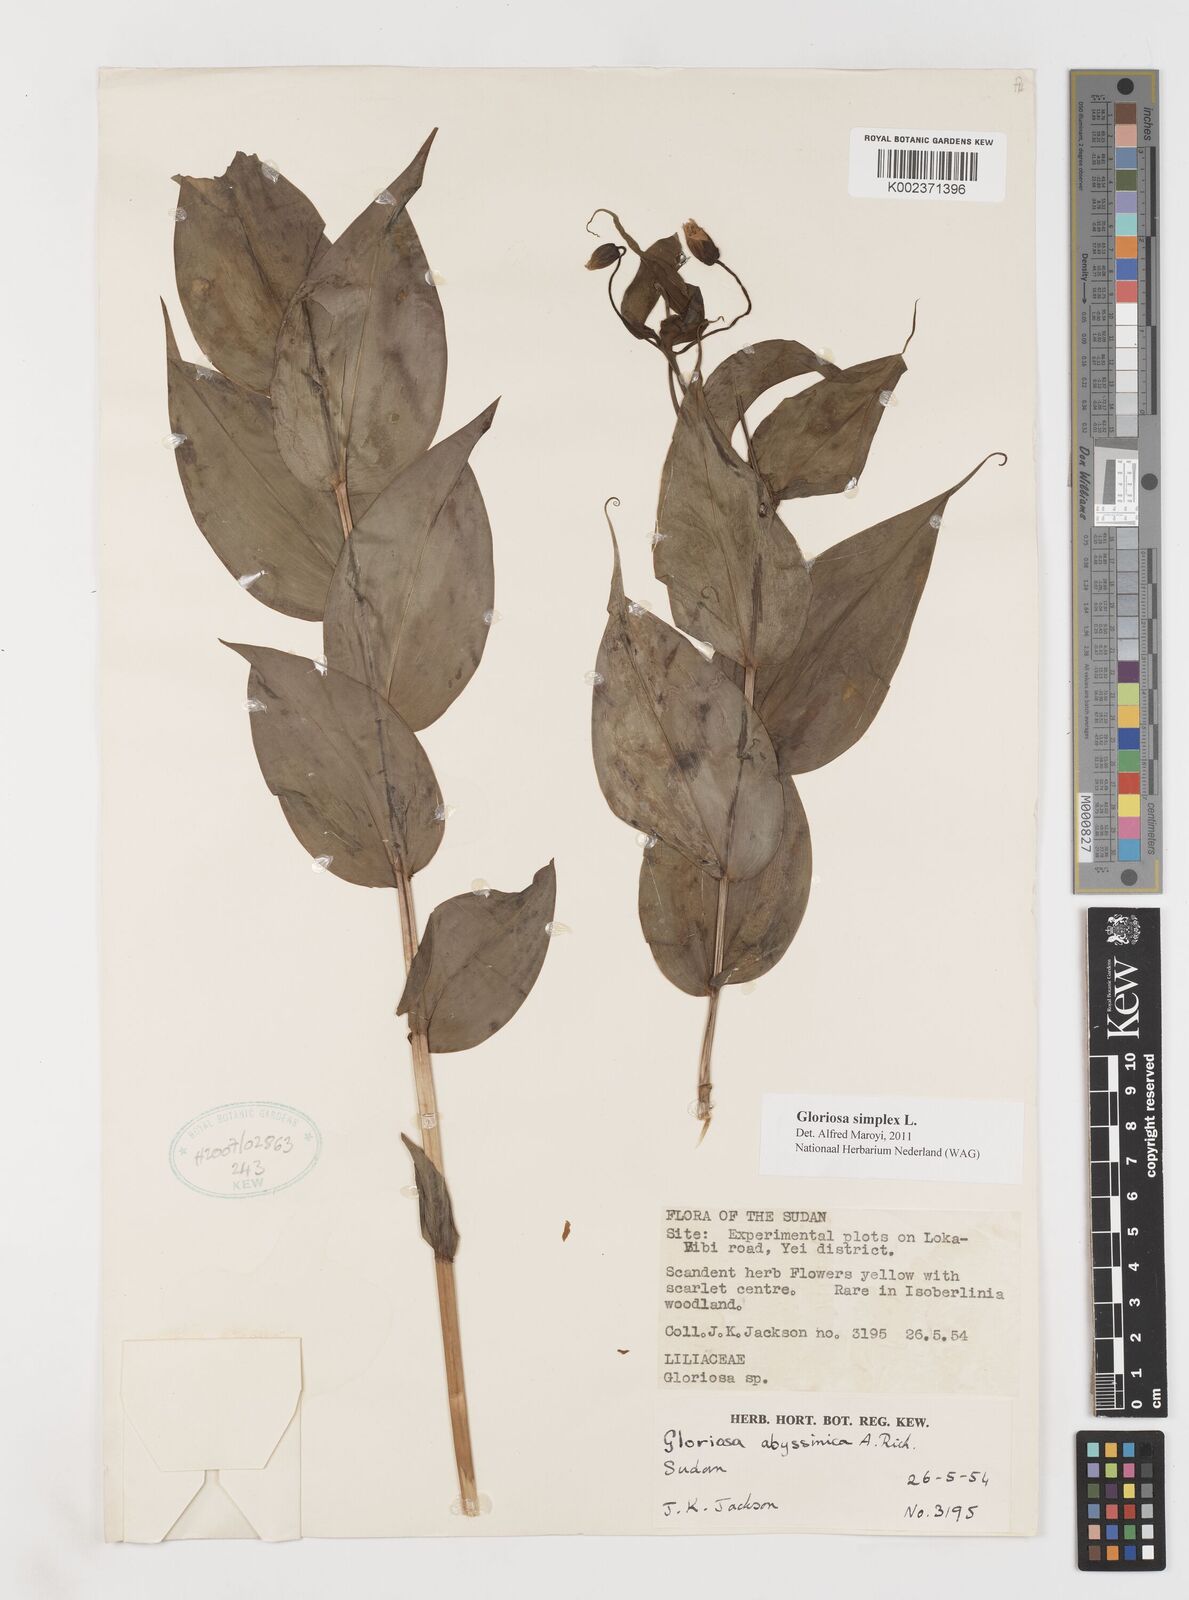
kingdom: Plantae
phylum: Tracheophyta
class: Liliopsida
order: Liliales
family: Colchicaceae
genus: Gloriosa
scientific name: Gloriosa simplex
